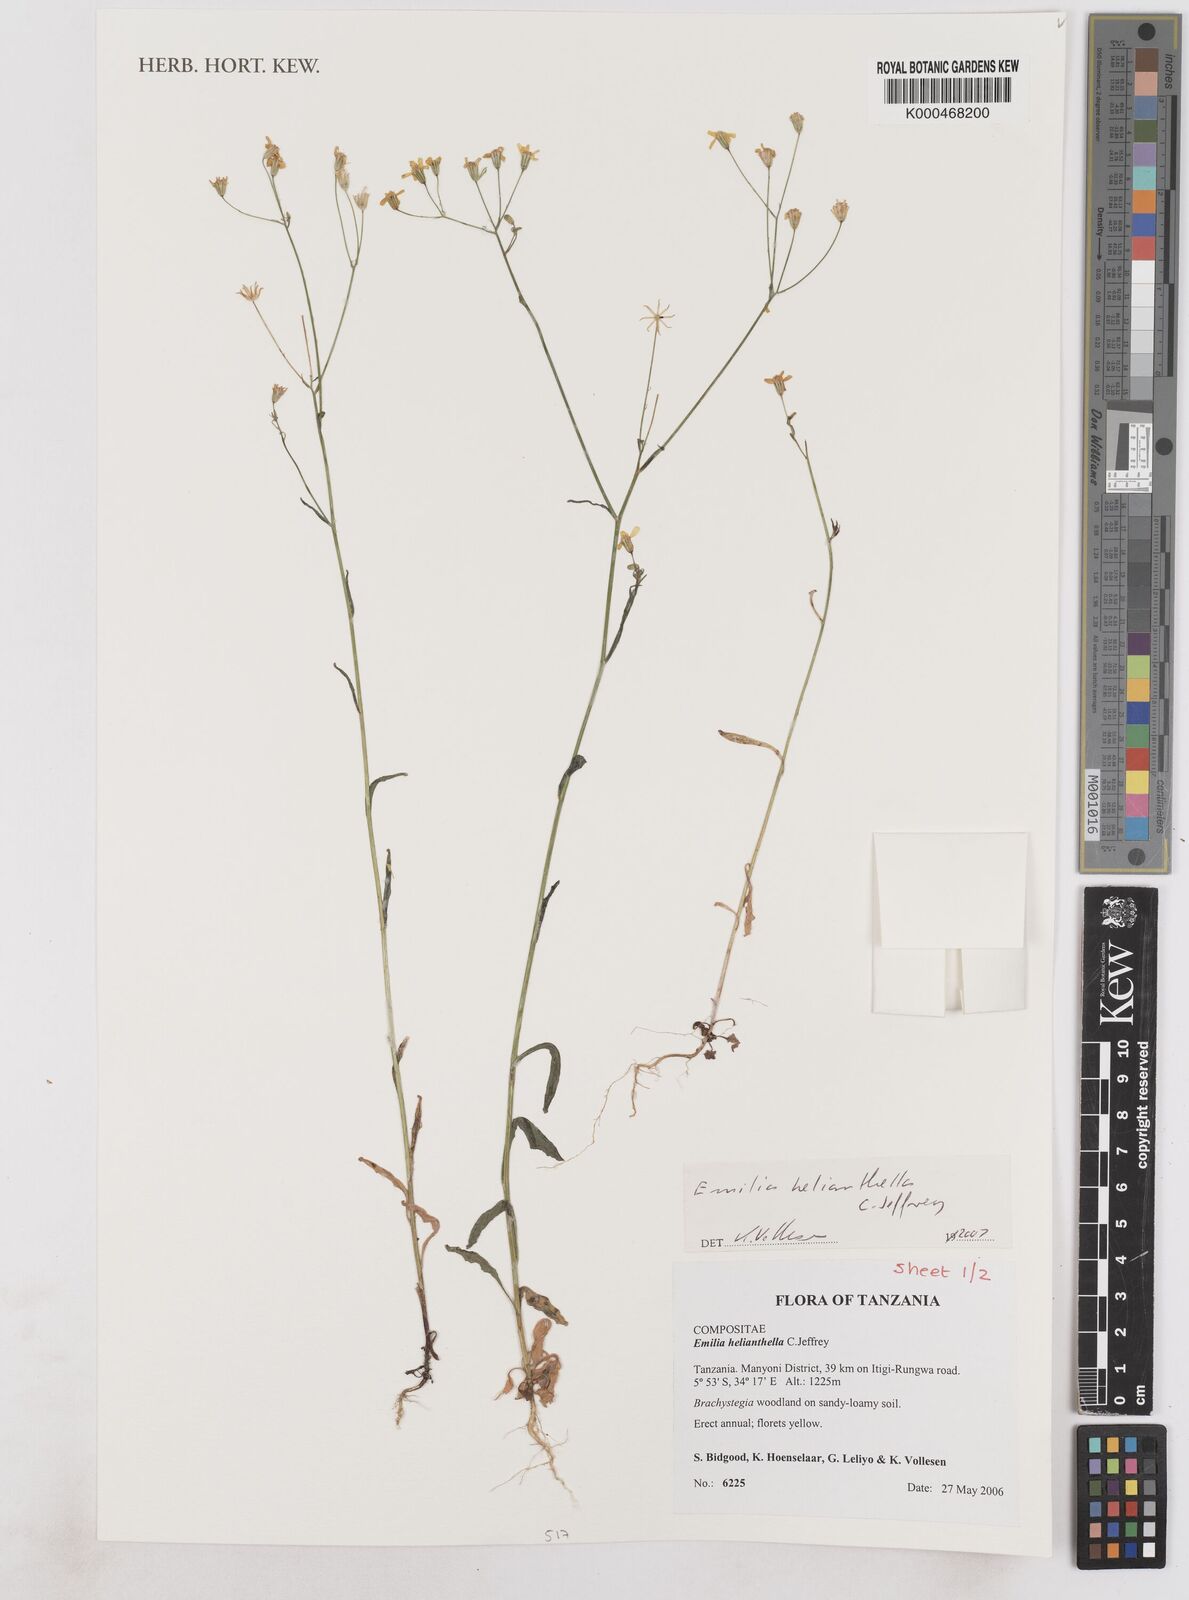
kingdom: Plantae
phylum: Tracheophyta
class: Magnoliopsida
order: Asterales
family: Asteraceae
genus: Emilia
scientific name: Emilia helianthella
